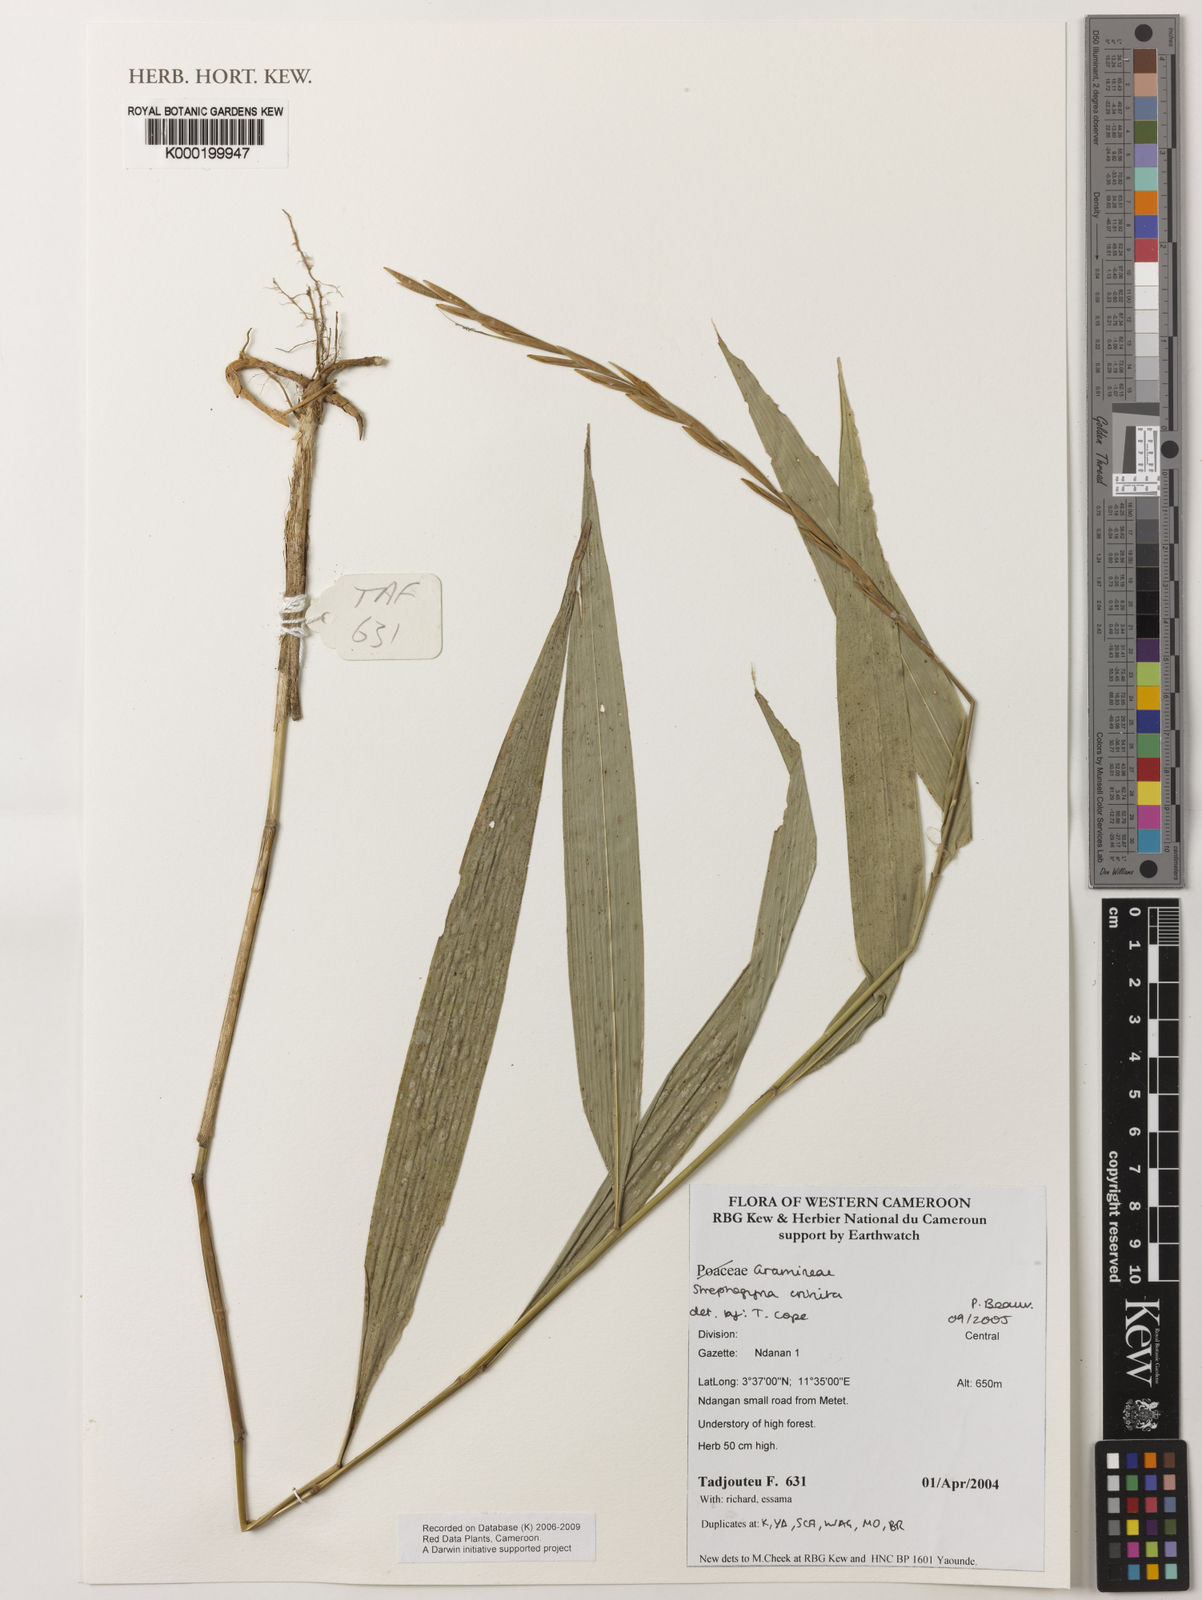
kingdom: Plantae
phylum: Tracheophyta
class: Liliopsida
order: Poales
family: Poaceae
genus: Streptogyna
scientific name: Streptogyna crinita
